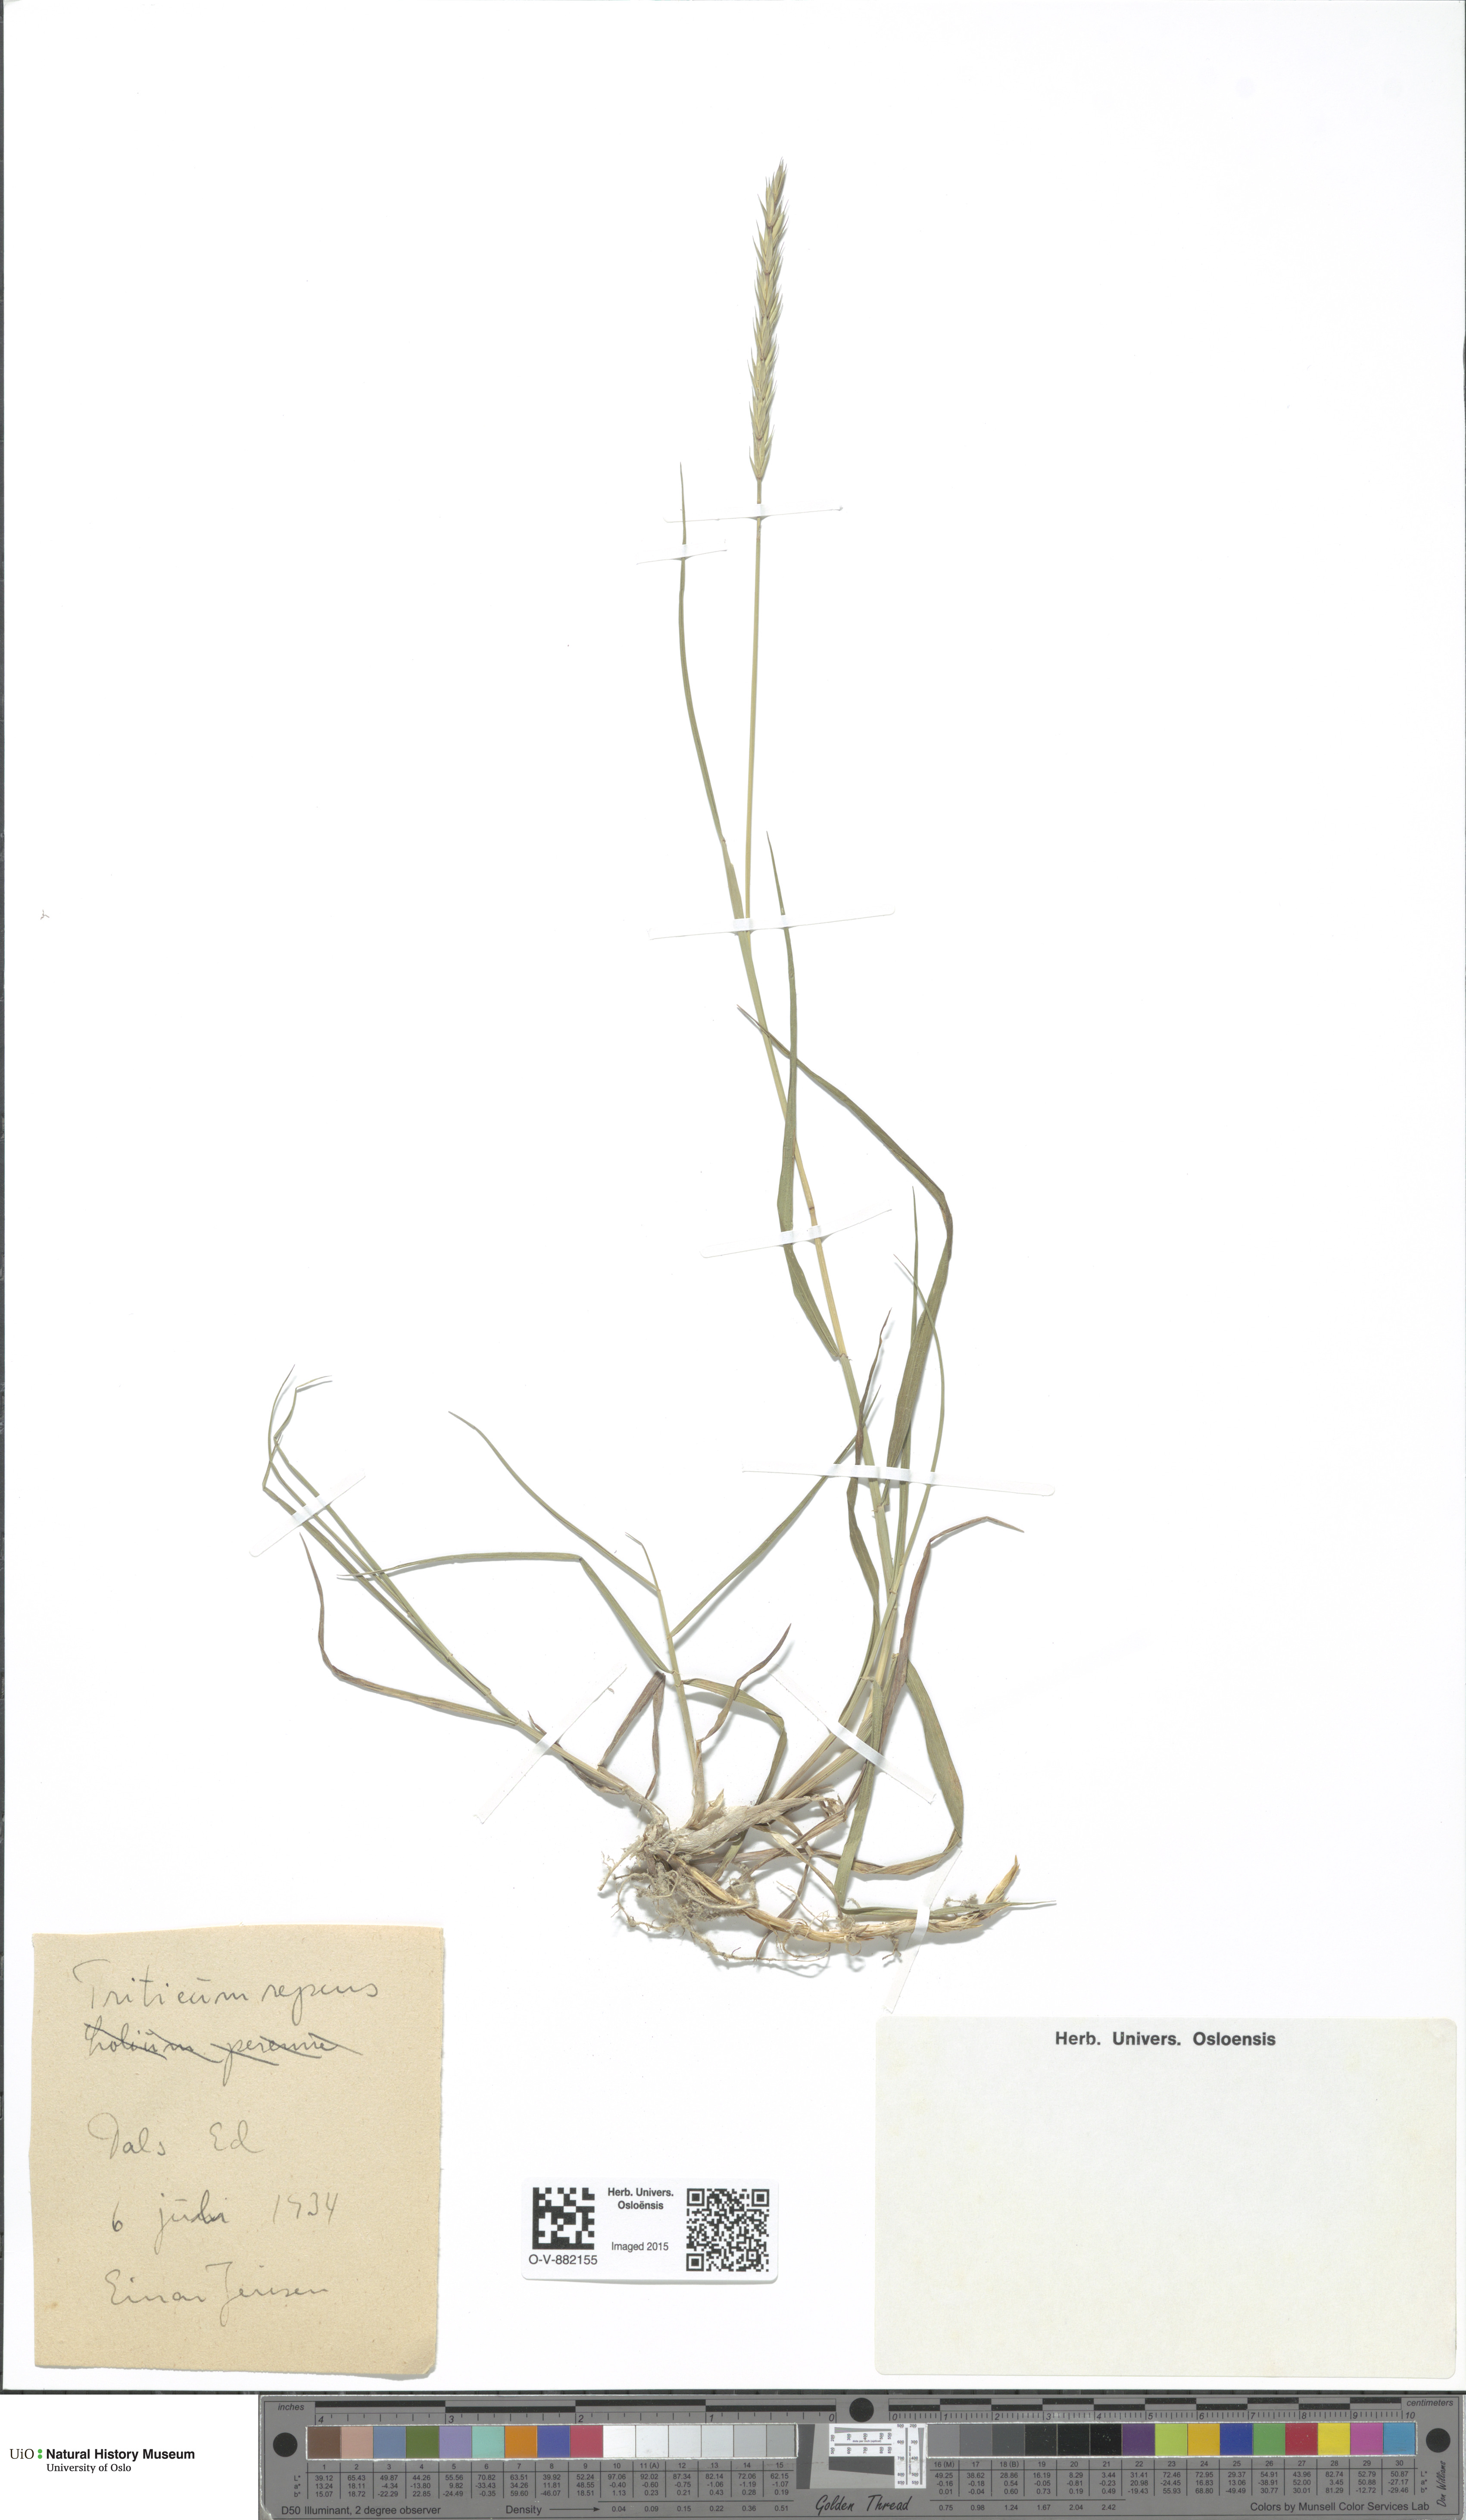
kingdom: Plantae
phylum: Tracheophyta
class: Liliopsida
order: Poales
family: Poaceae
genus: Elymus
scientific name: Elymus repens
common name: Quackgrass
